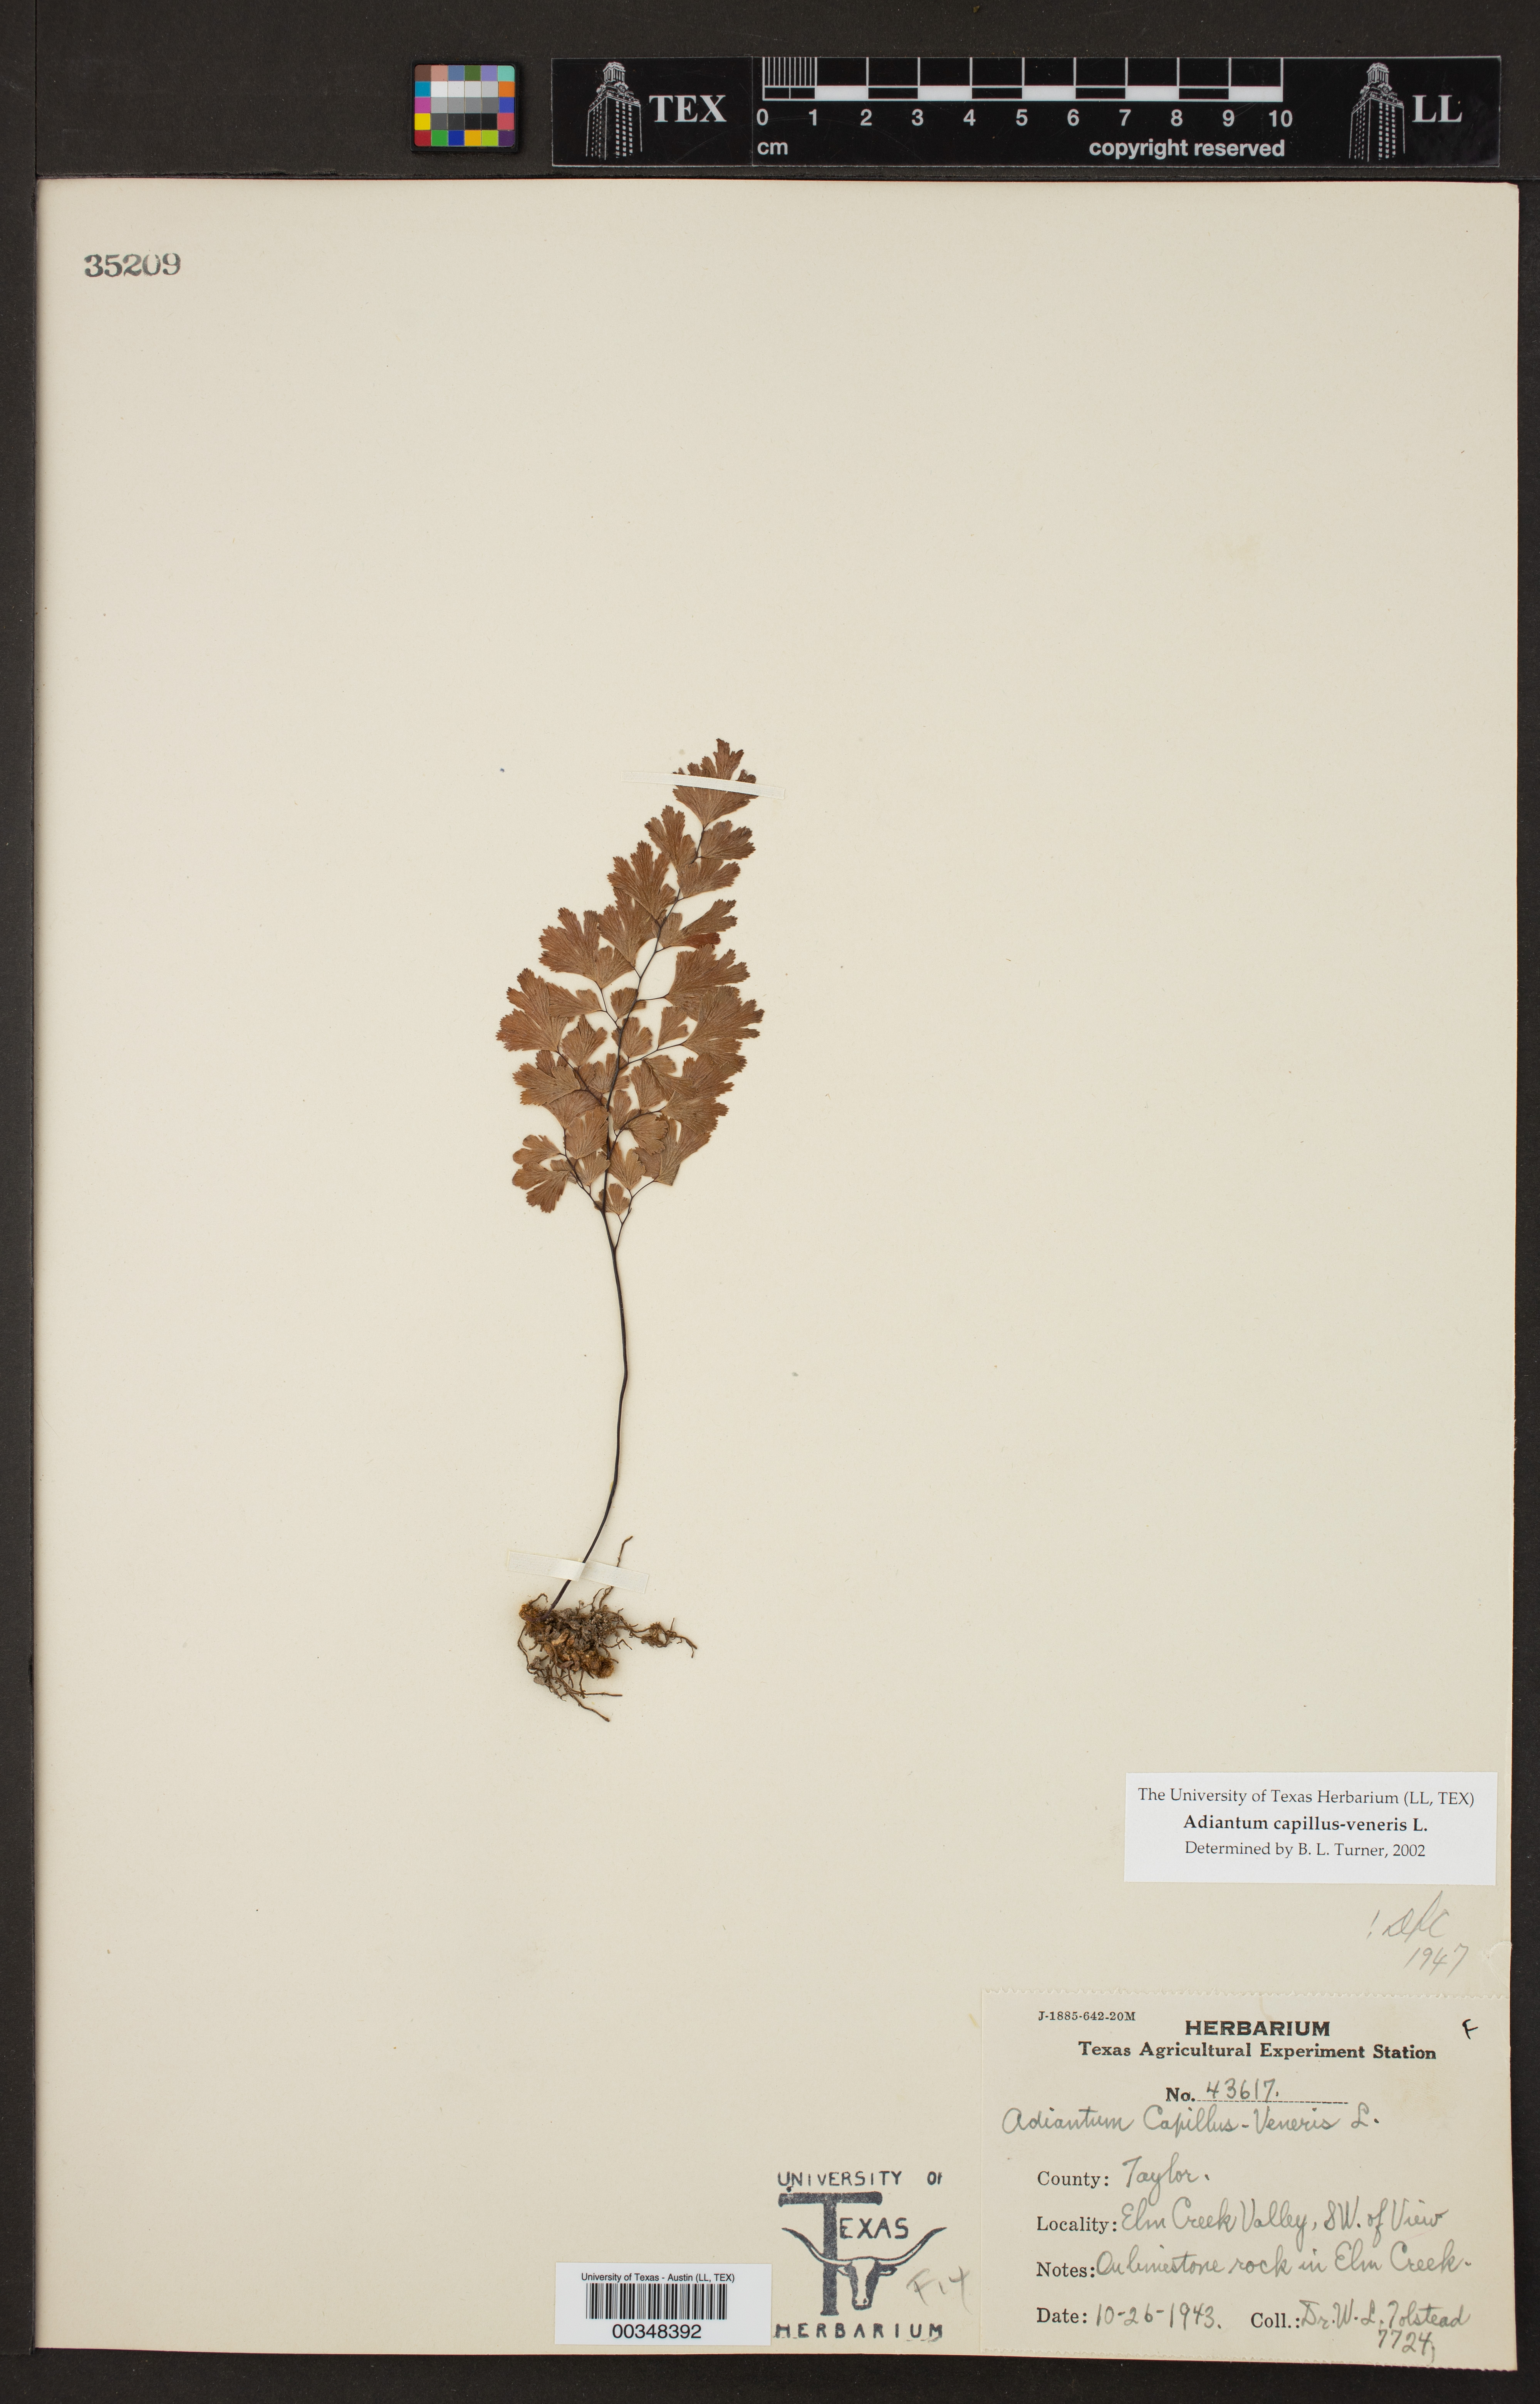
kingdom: Plantae
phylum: Tracheophyta
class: Polypodiopsida
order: Polypodiales
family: Pteridaceae
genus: Adiantum
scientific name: Adiantum capillus-veneris
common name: Maidenhair fern
